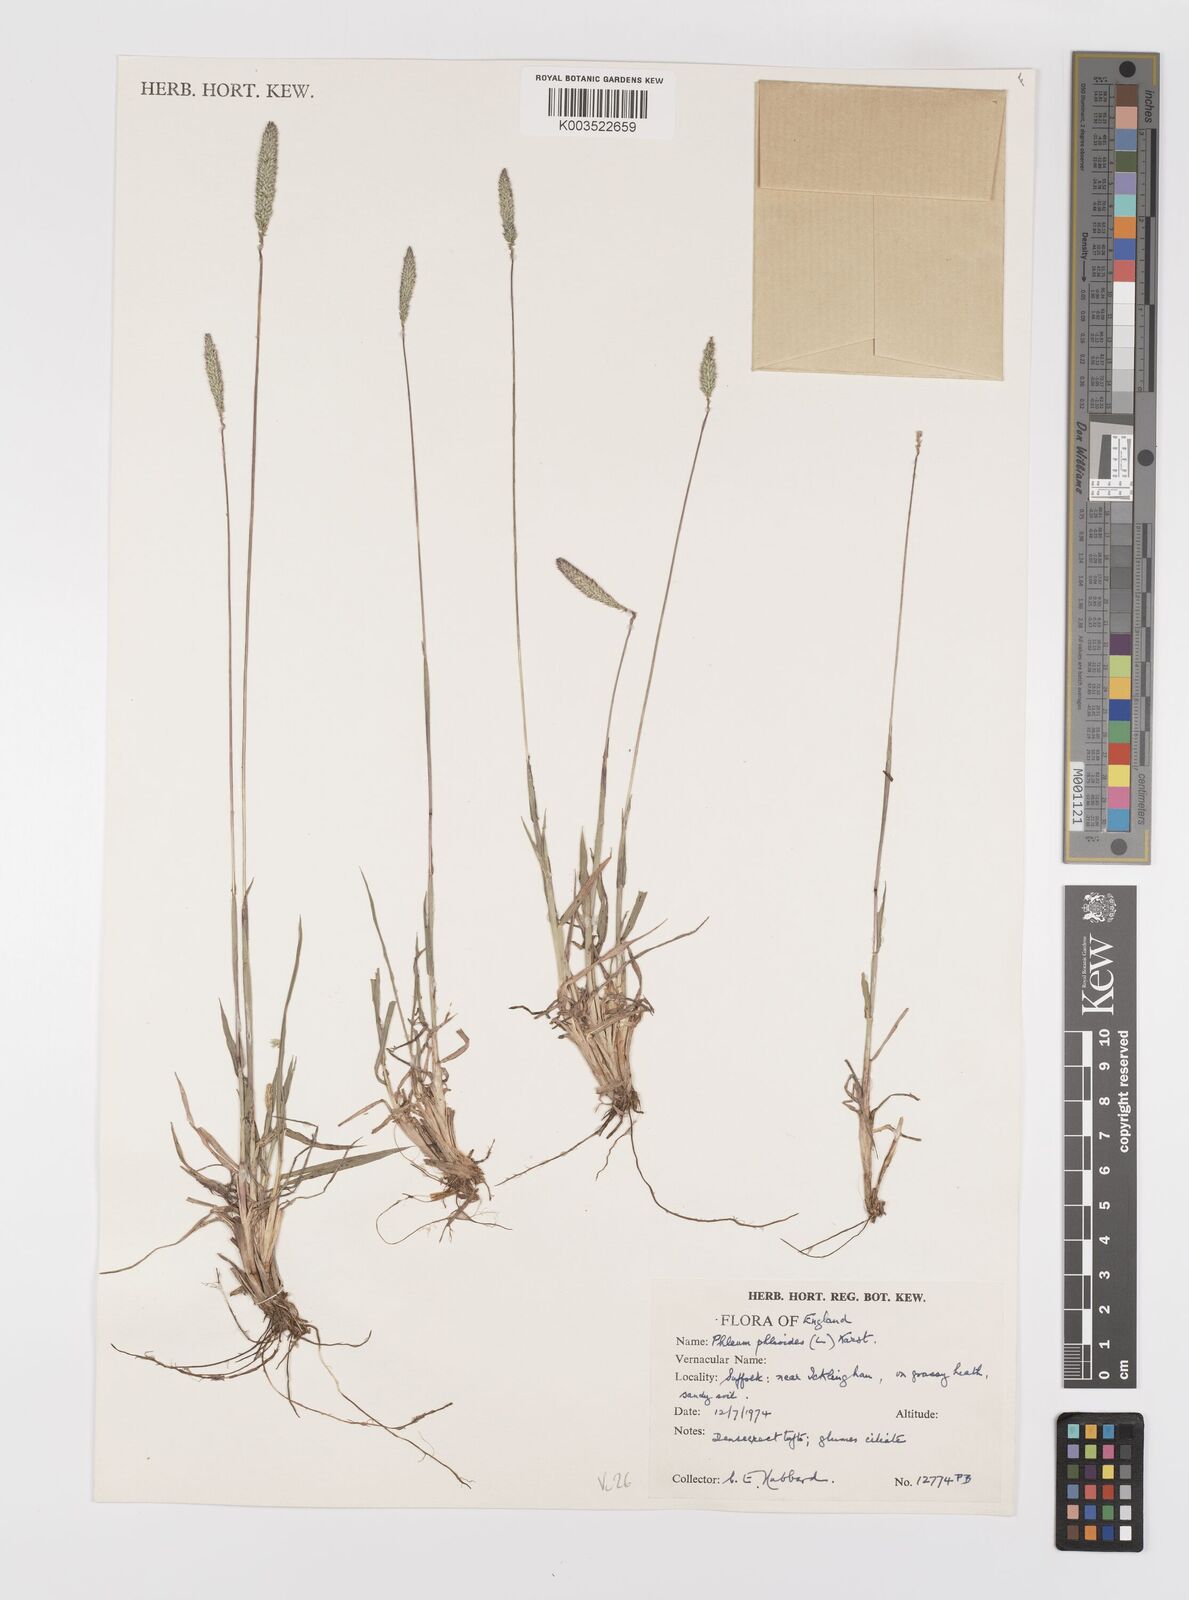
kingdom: Plantae
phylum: Tracheophyta
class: Liliopsida
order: Poales
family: Poaceae
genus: Phleum
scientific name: Phleum phleoides
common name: Purple-stem cat's-tail
